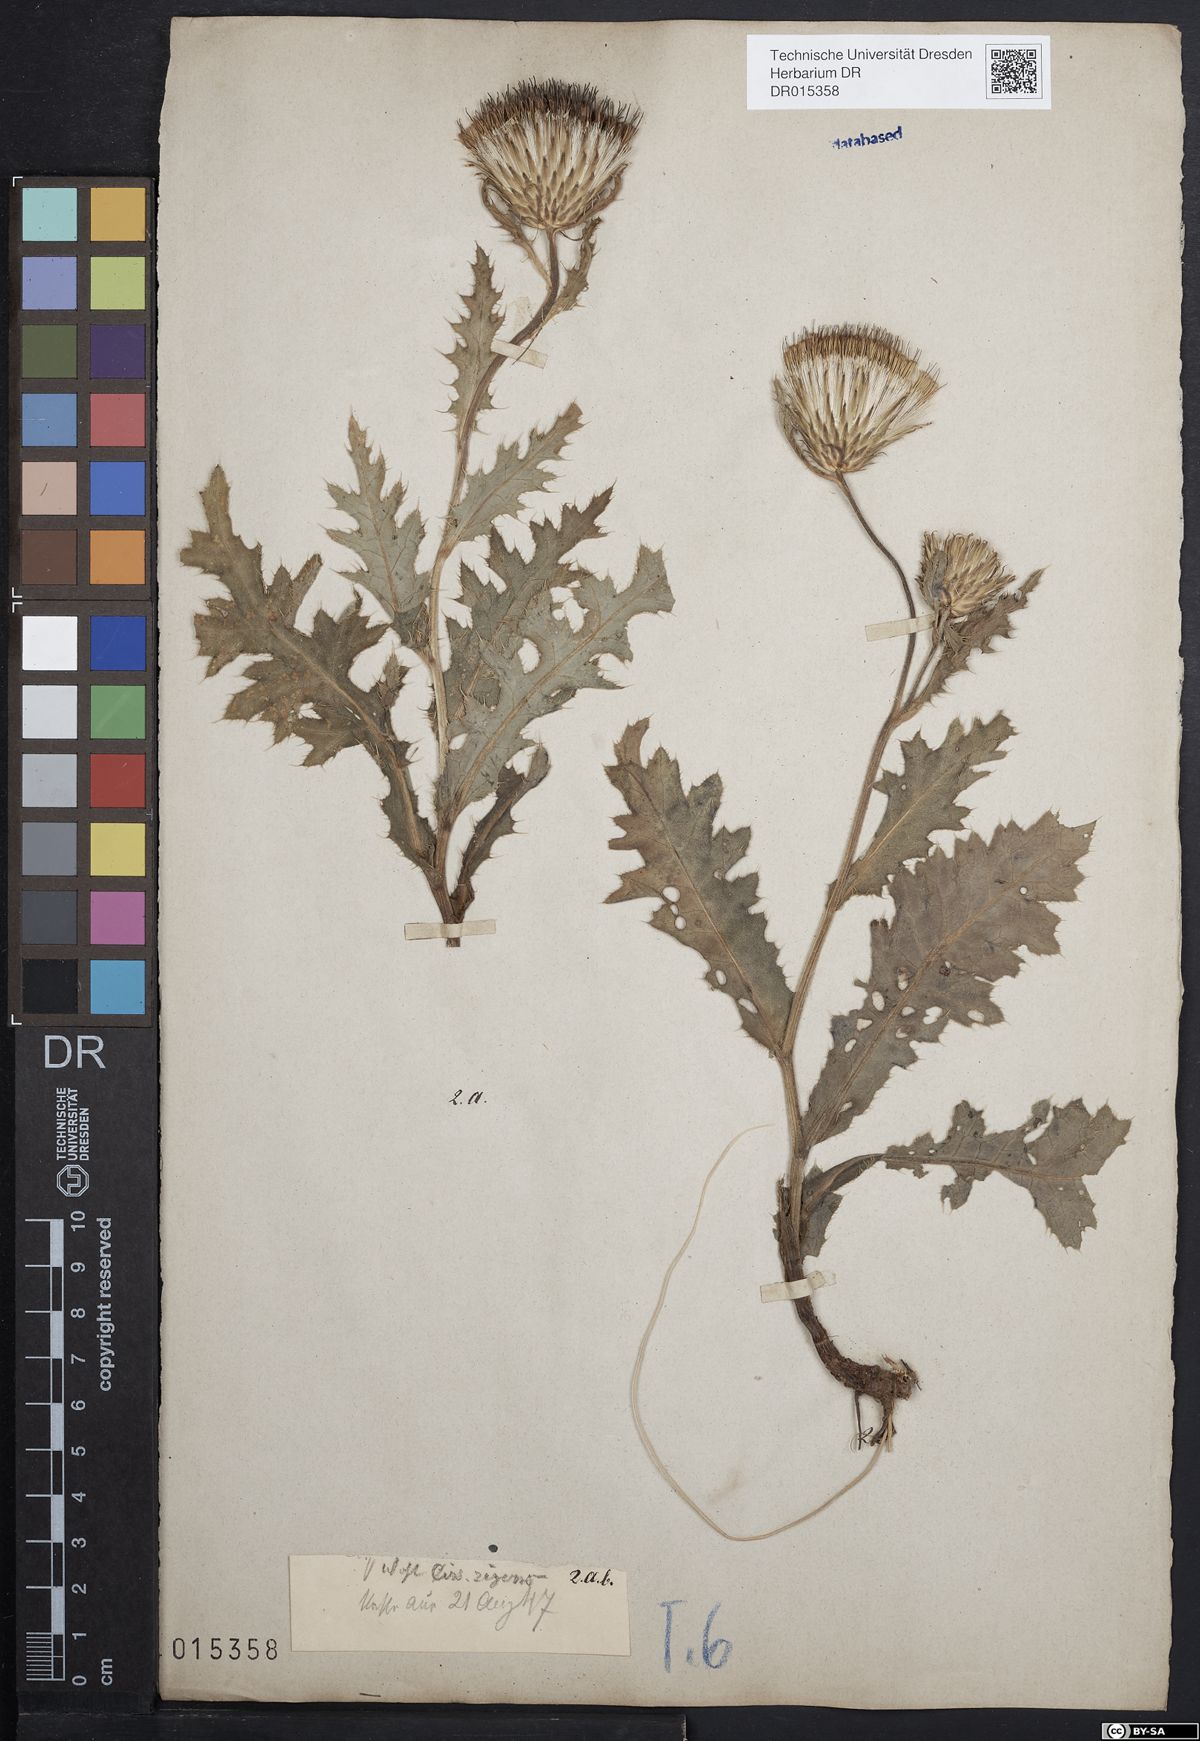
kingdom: Plantae
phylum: Tracheophyta
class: Magnoliopsida
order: Asterales
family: Asteraceae
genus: Cirsium
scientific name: Cirsium rigens
